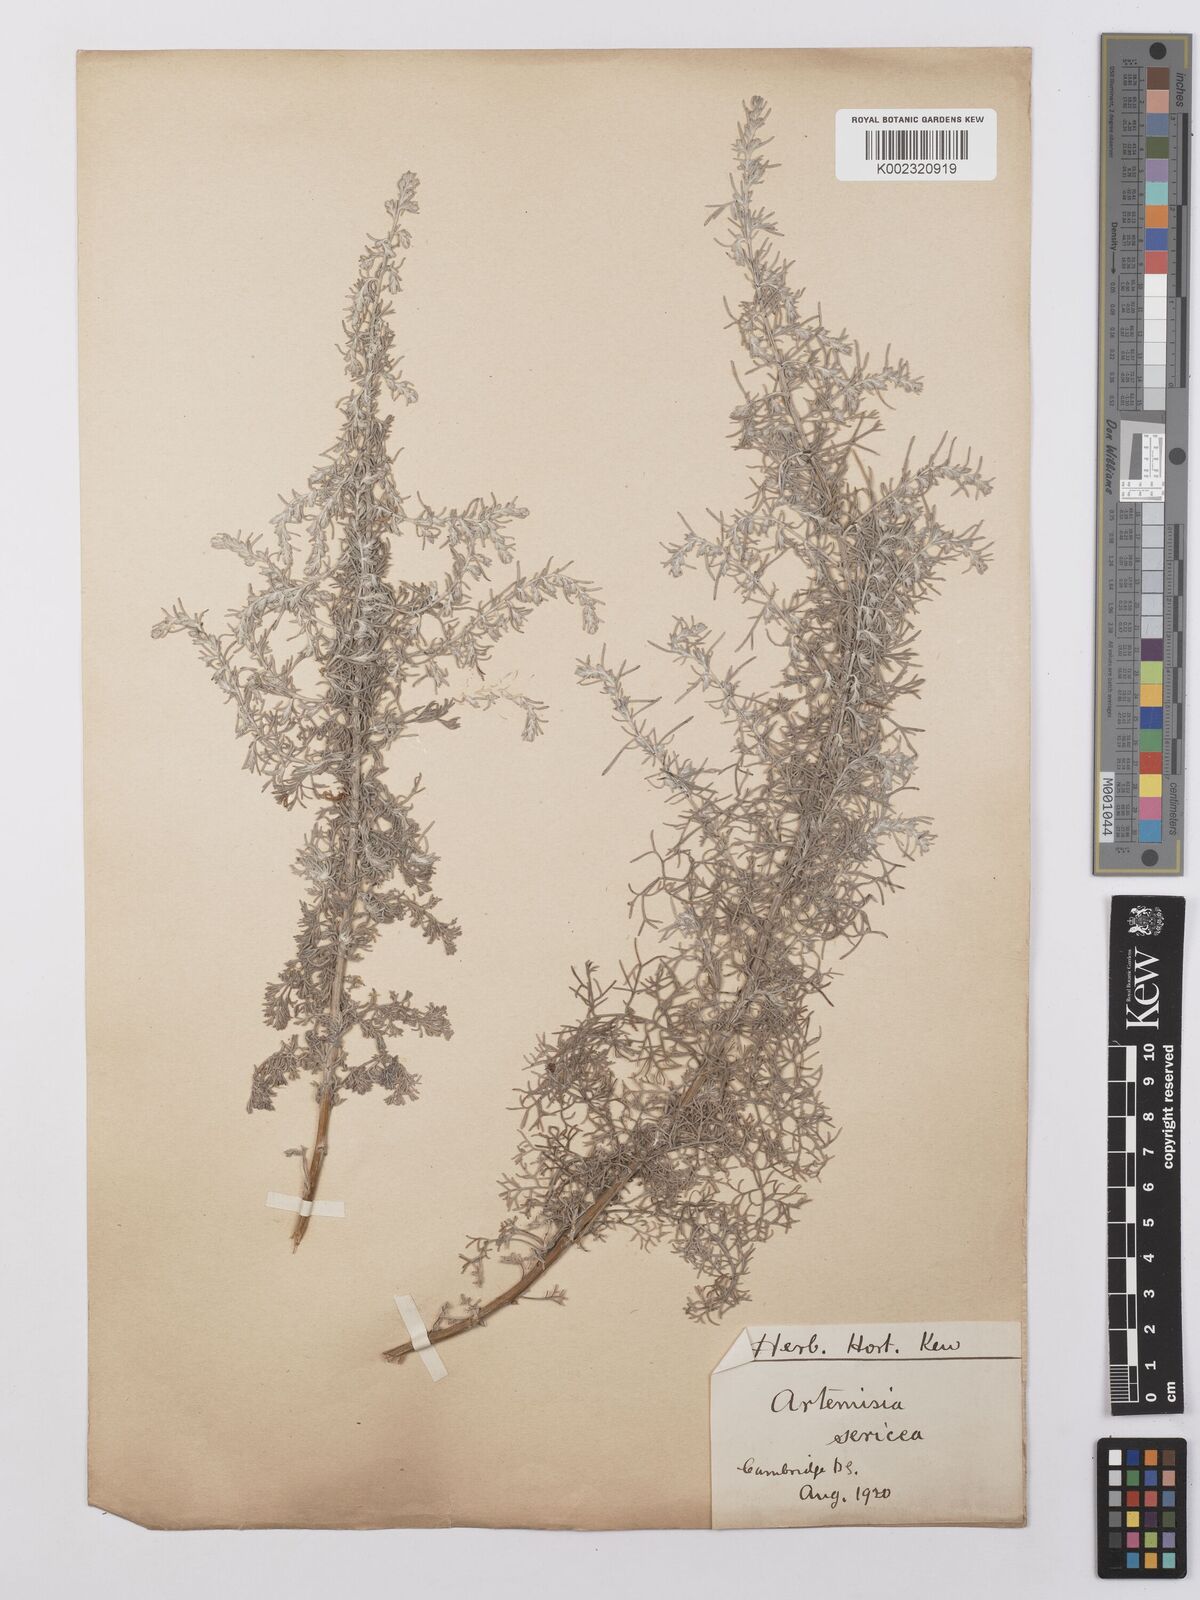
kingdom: Plantae
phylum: Tracheophyta
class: Magnoliopsida
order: Asterales
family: Asteraceae
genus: Artemisia
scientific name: Artemisia sericea
